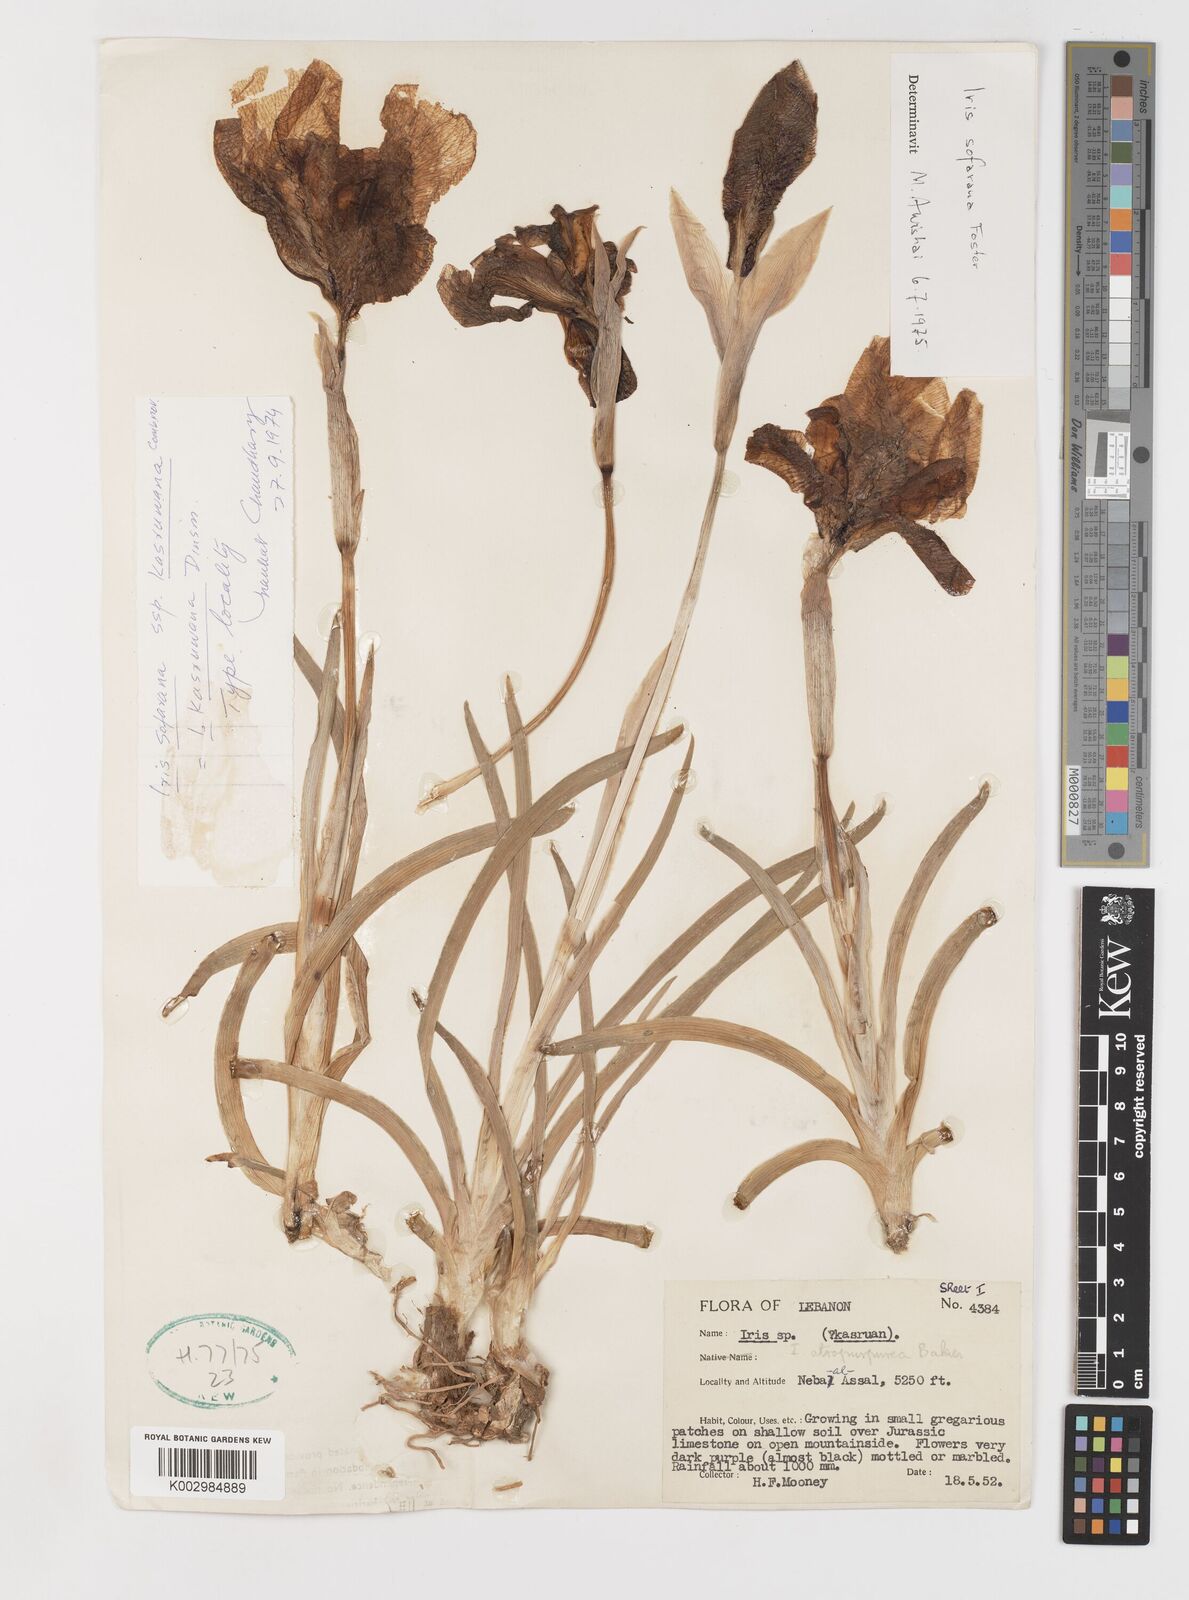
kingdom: Plantae
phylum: Tracheophyta
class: Liliopsida
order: Asparagales
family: Iridaceae
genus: Iris
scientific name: Iris susiana
